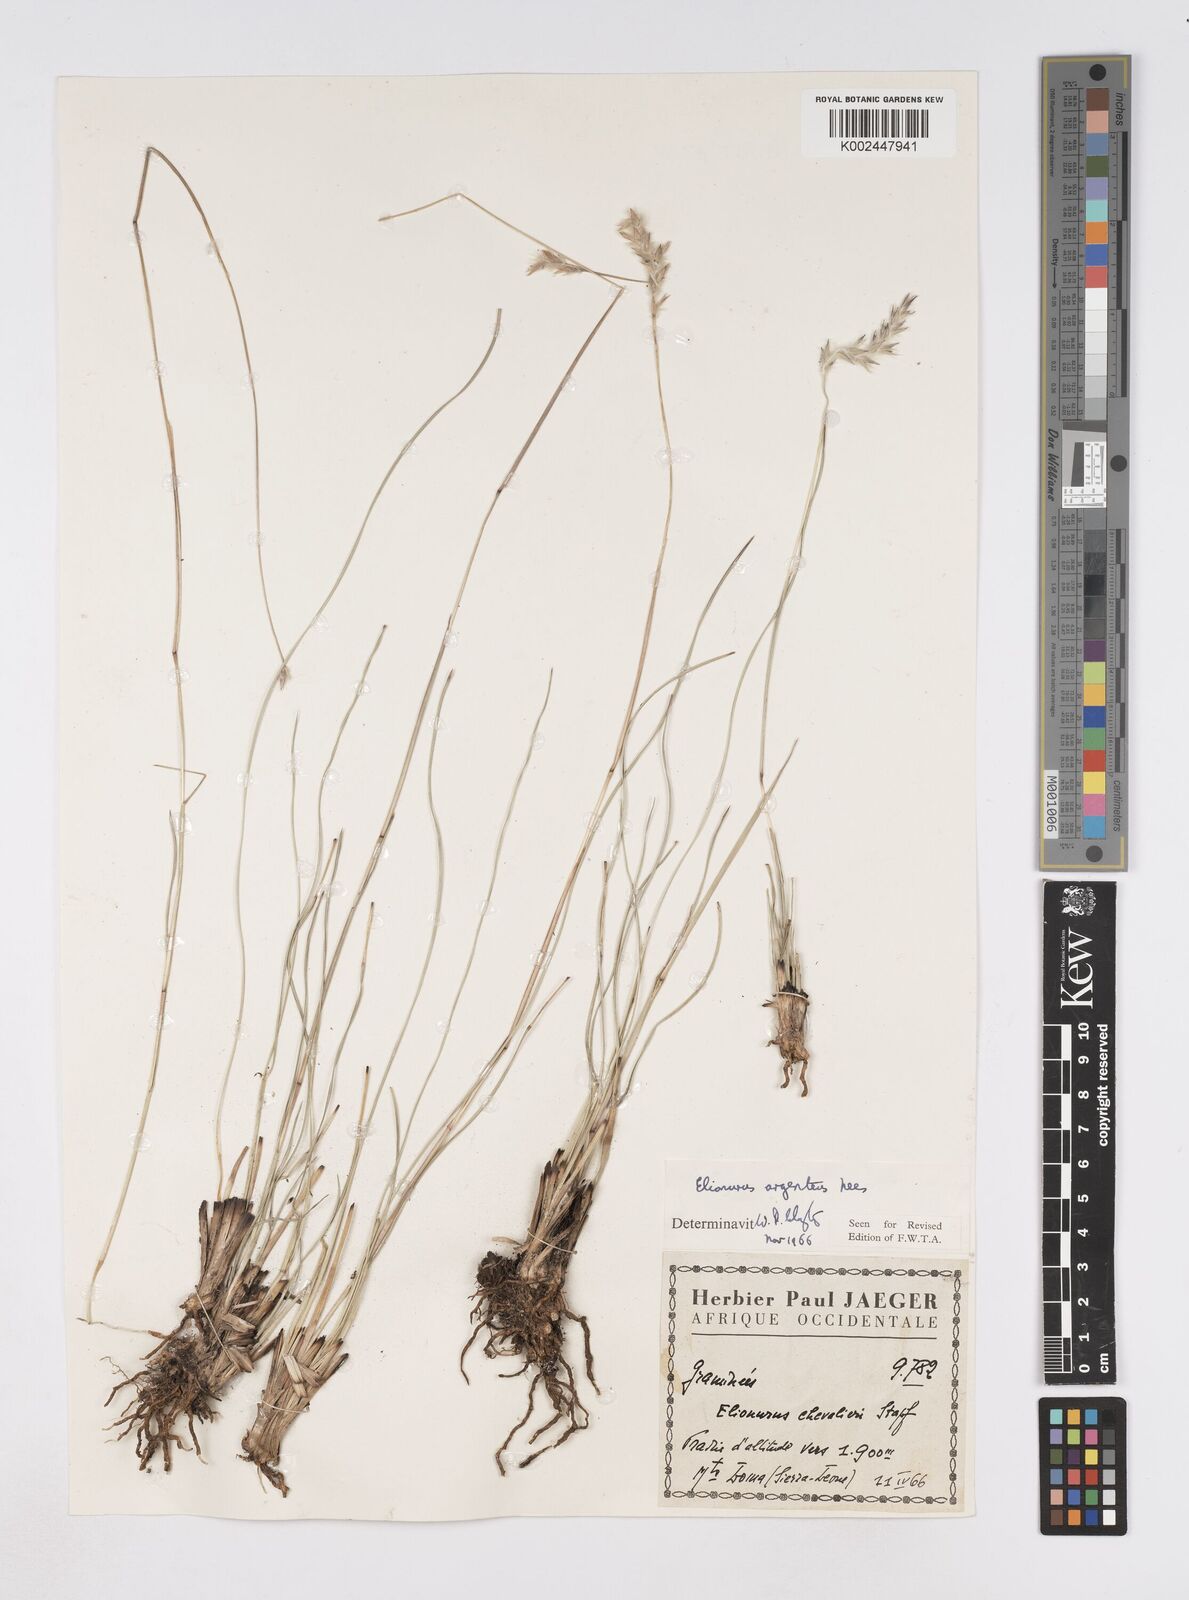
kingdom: Plantae
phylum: Tracheophyta
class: Liliopsida
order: Poales
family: Poaceae
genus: Elionurus
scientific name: Elionurus muticus
